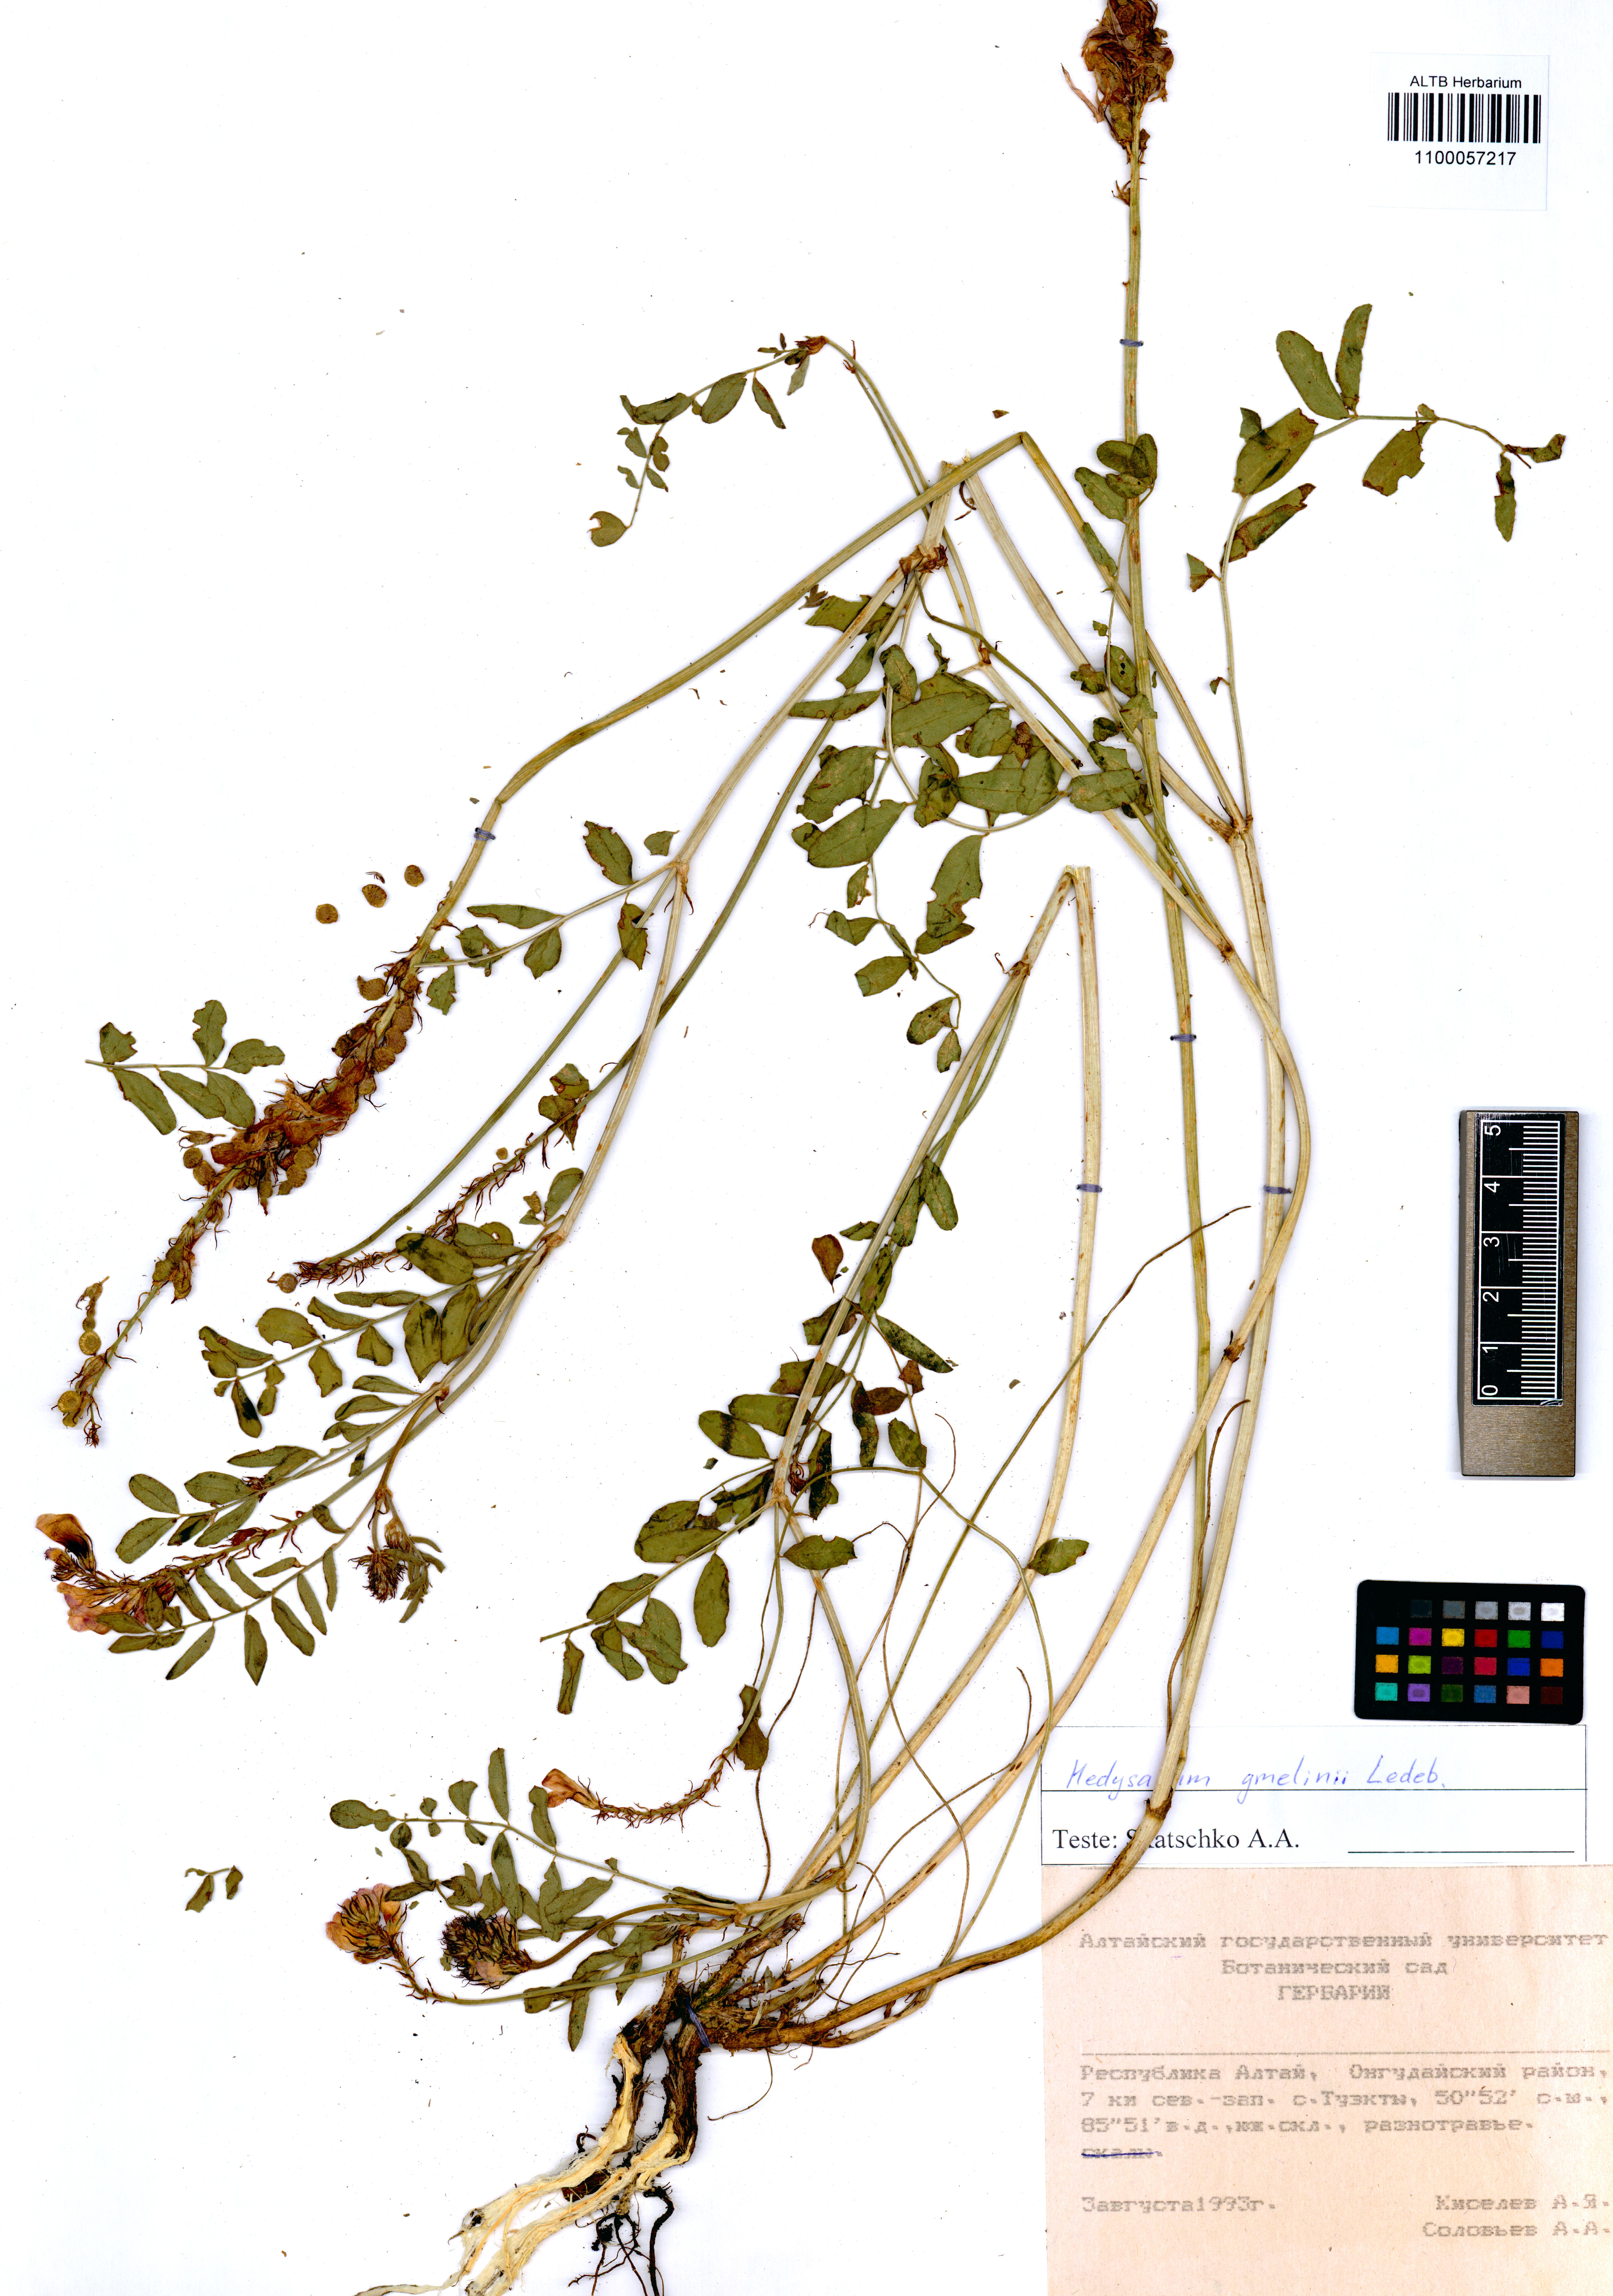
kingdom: Plantae
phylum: Tracheophyta
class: Magnoliopsida
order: Fabales
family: Fabaceae
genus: Hedysarum
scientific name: Hedysarum gmelinii
